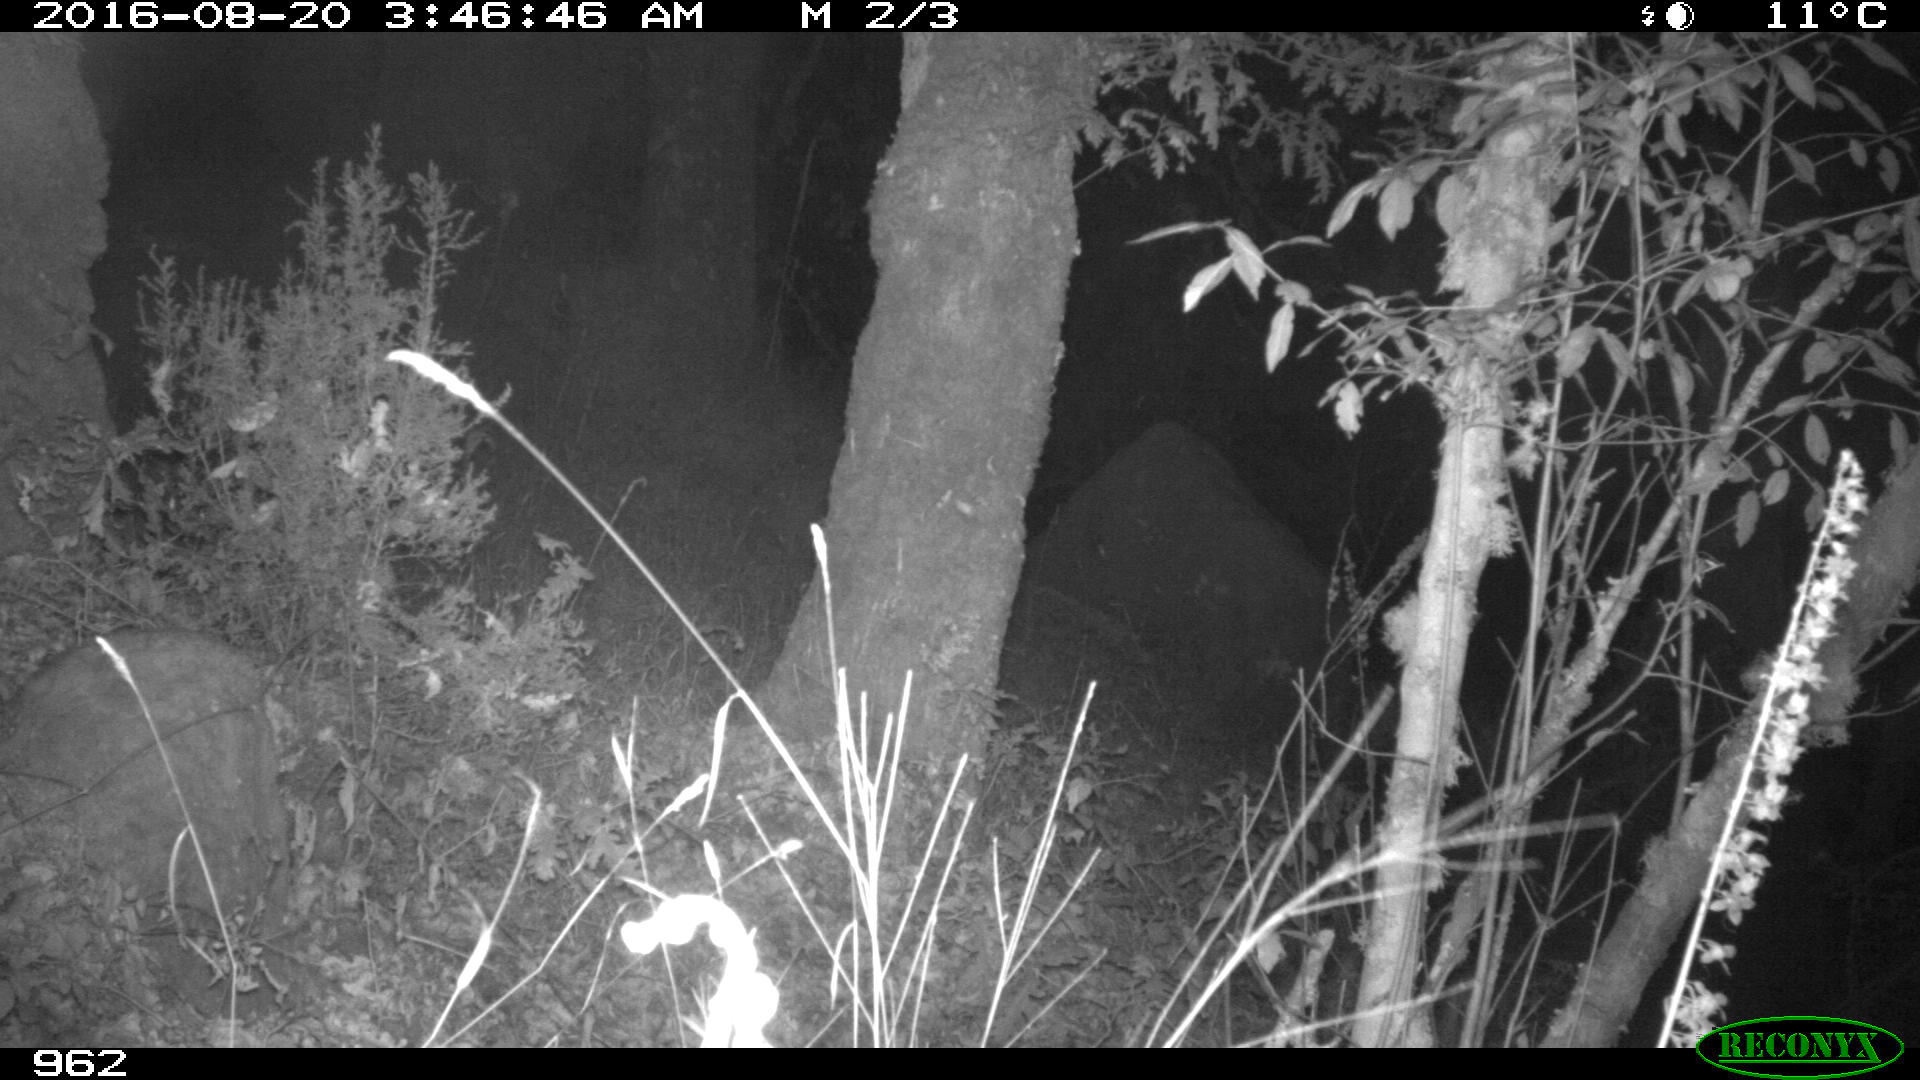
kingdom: Animalia
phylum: Chordata
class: Mammalia
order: Artiodactyla
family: Suidae
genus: Sus
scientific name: Sus scrofa
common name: Wild boar
